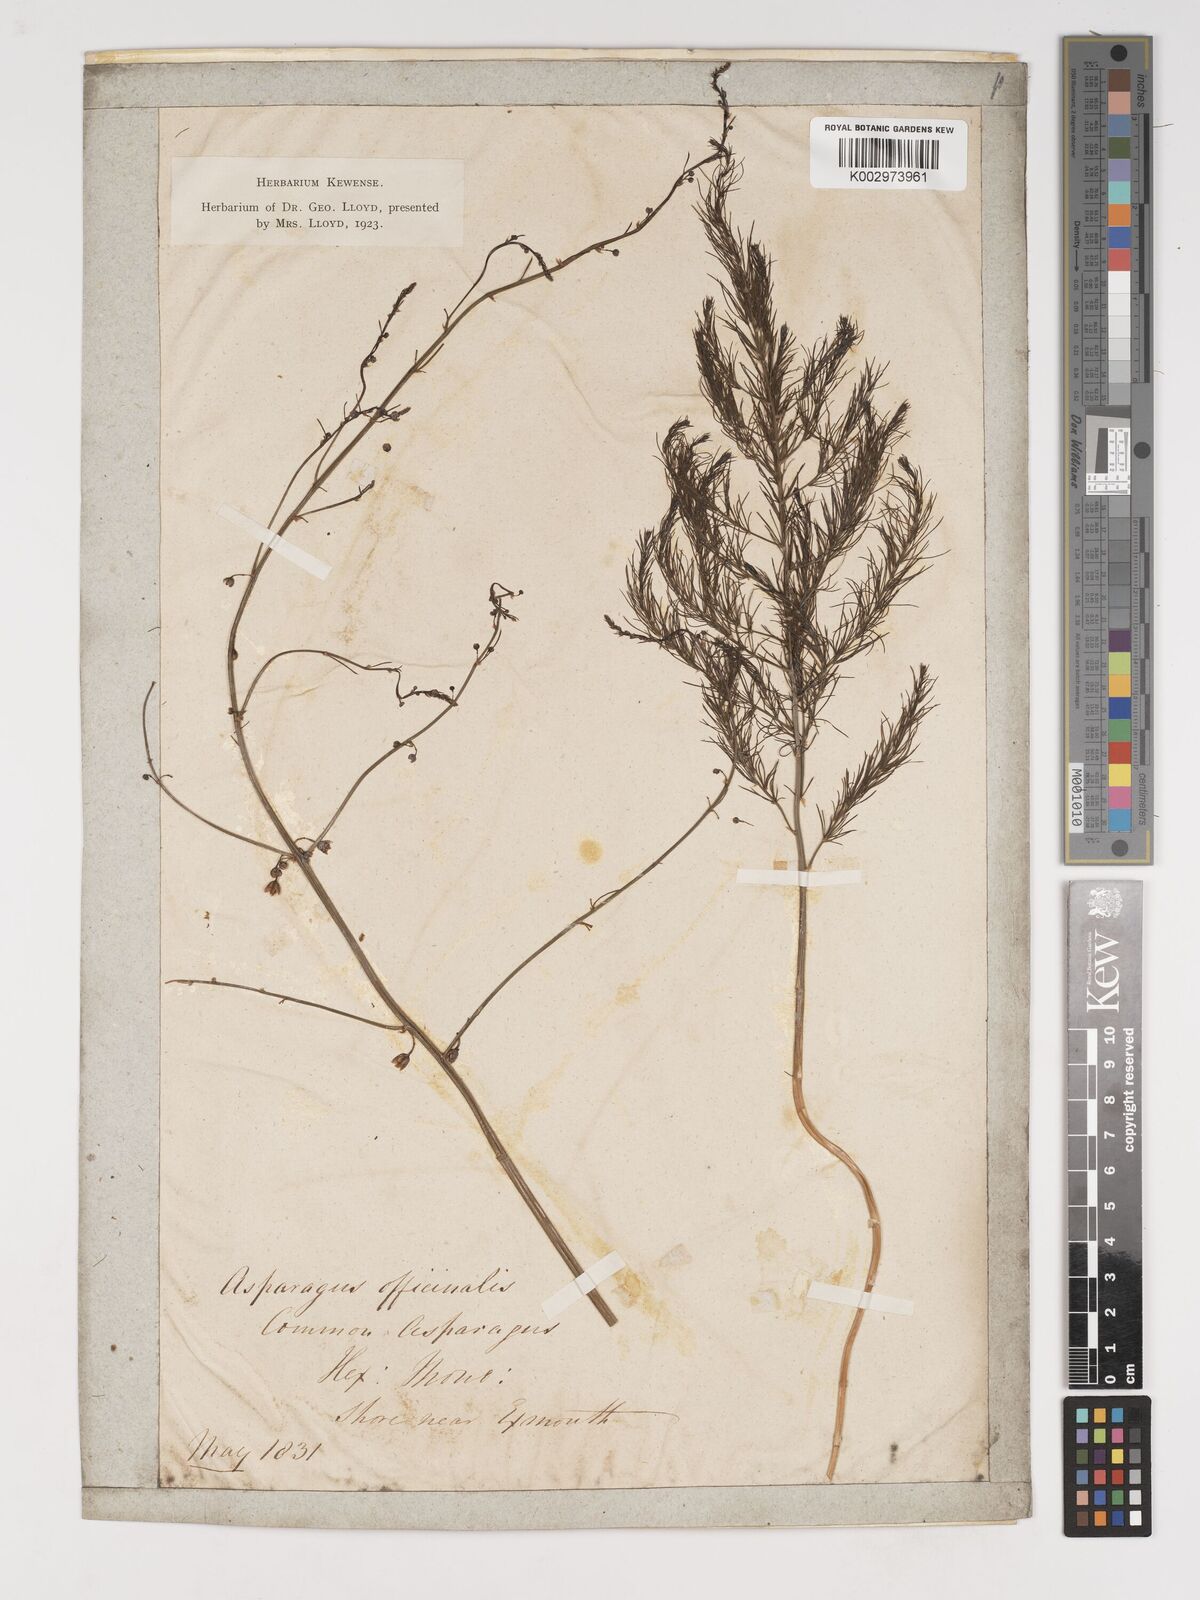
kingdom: Plantae
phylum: Tracheophyta
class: Liliopsida
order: Asparagales
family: Asparagaceae
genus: Asparagus
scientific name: Asparagus officinalis
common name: Garden asparagus
